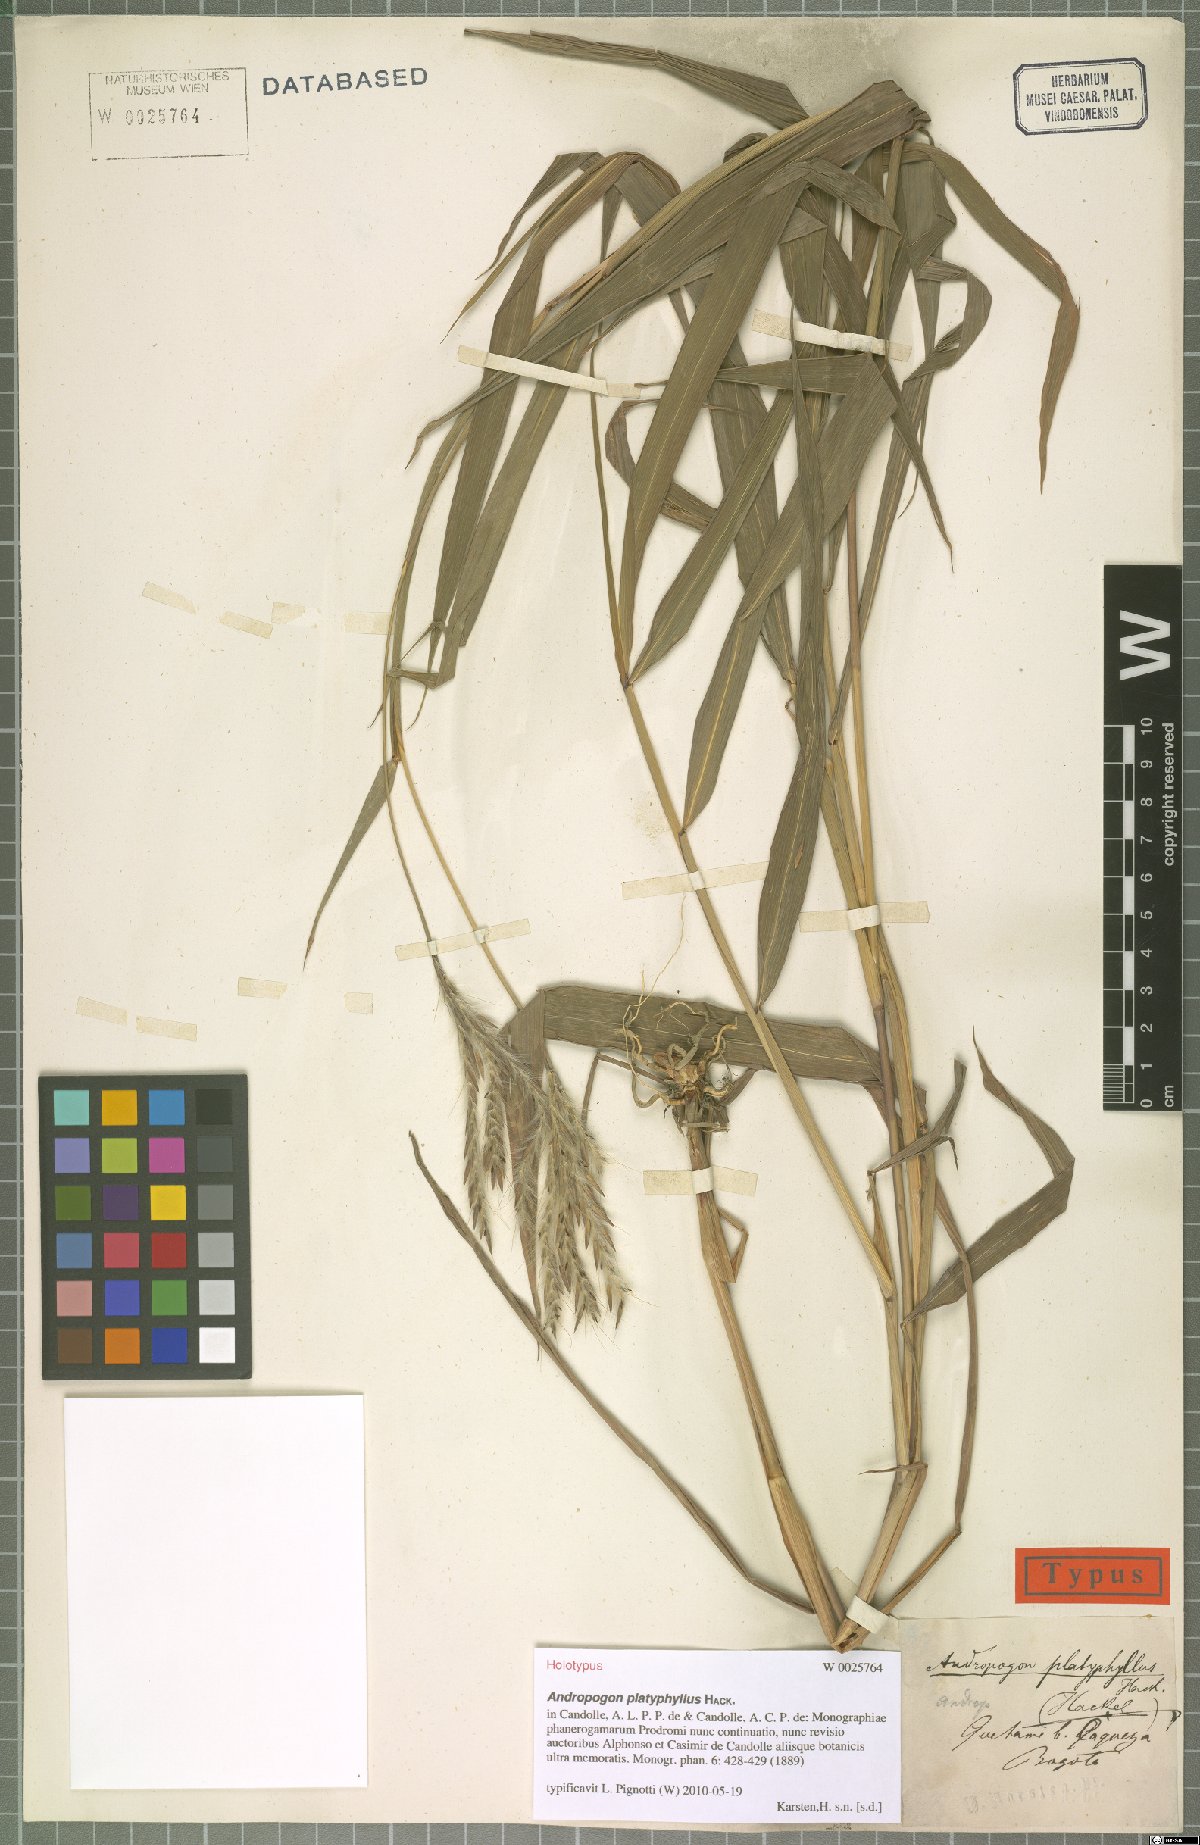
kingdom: Plantae
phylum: Tracheophyta
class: Liliopsida
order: Poales
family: Poaceae
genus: Andropogon
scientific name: Andropogon platyphyllus
